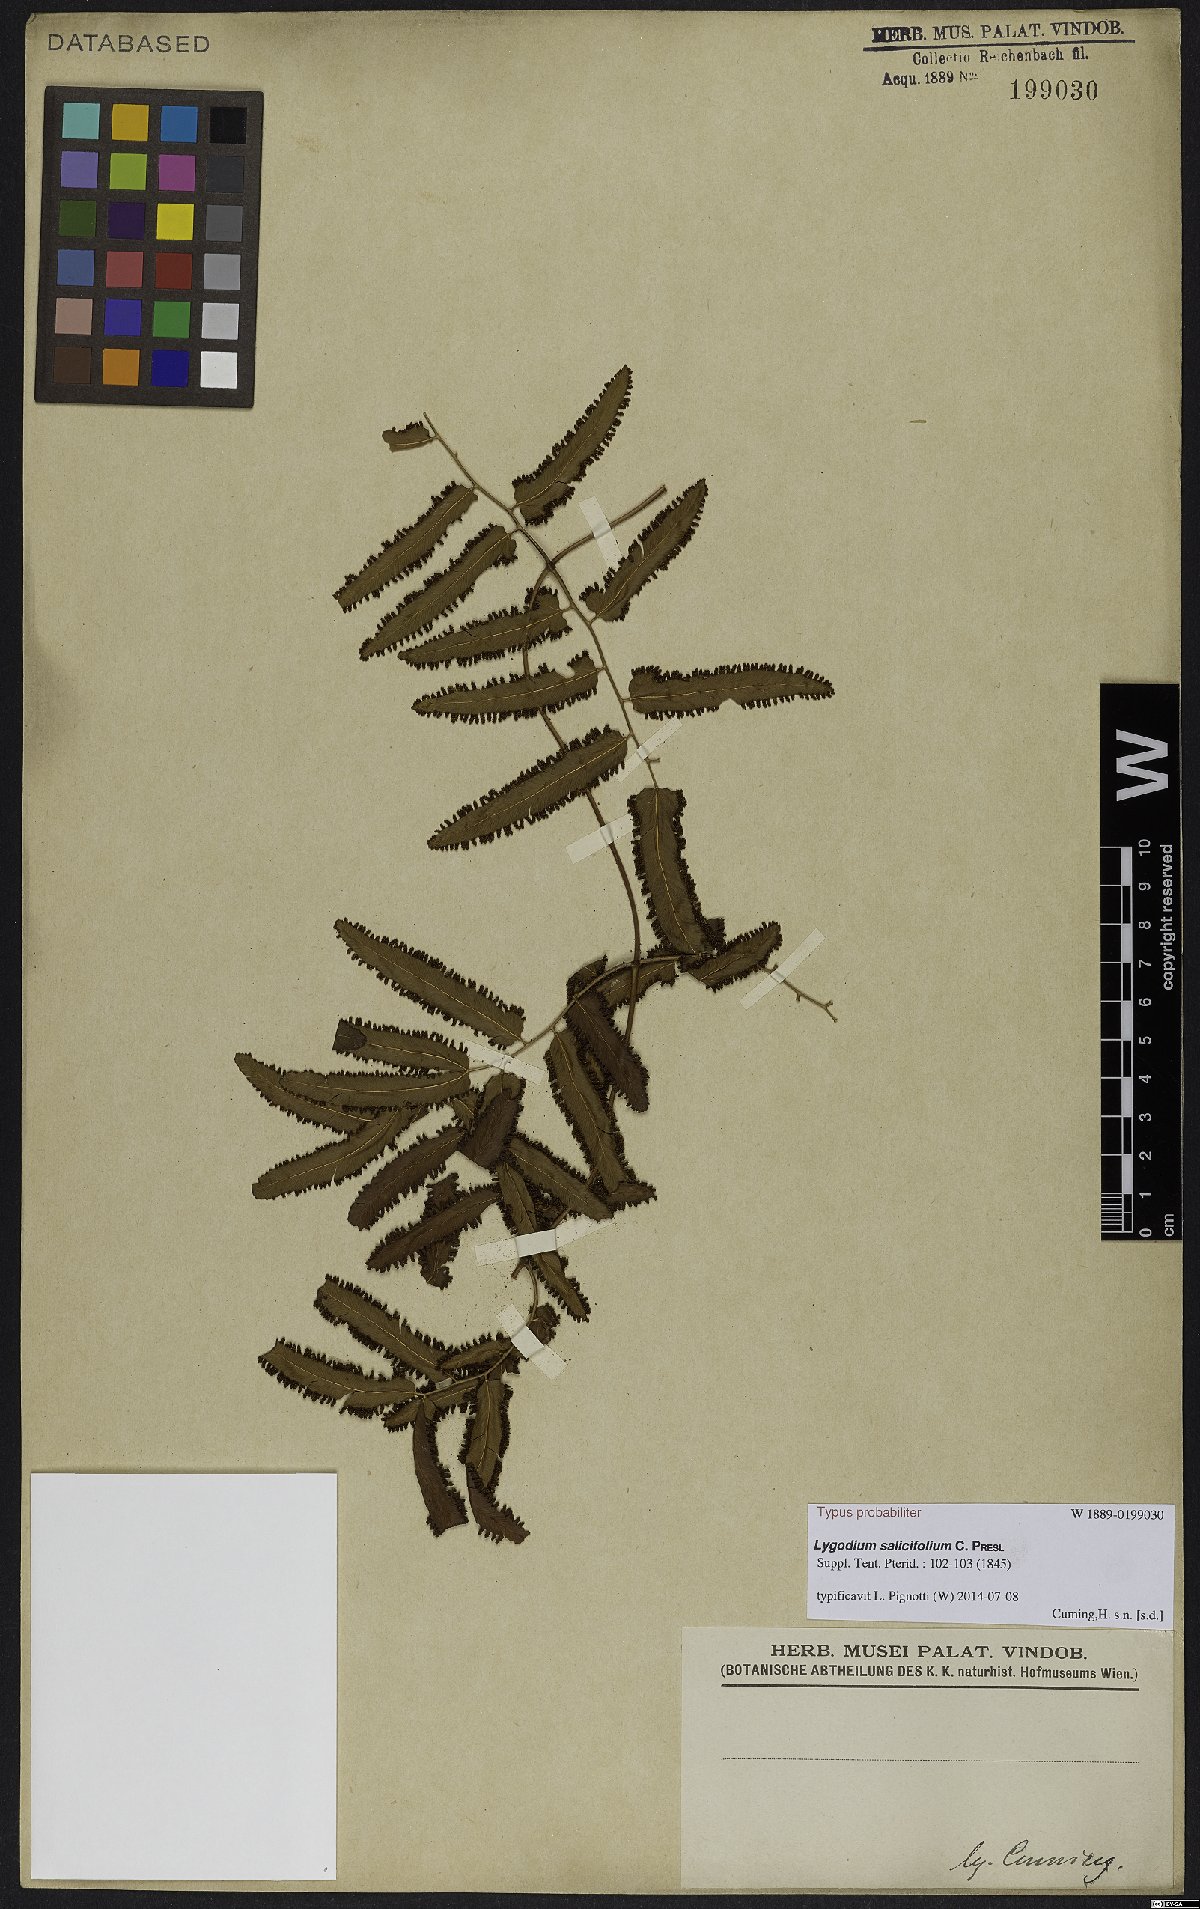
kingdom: Plantae
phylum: Tracheophyta
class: Polypodiopsida
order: Schizaeales
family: Lygodiaceae
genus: Lygodium
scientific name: Lygodium salicifolium
